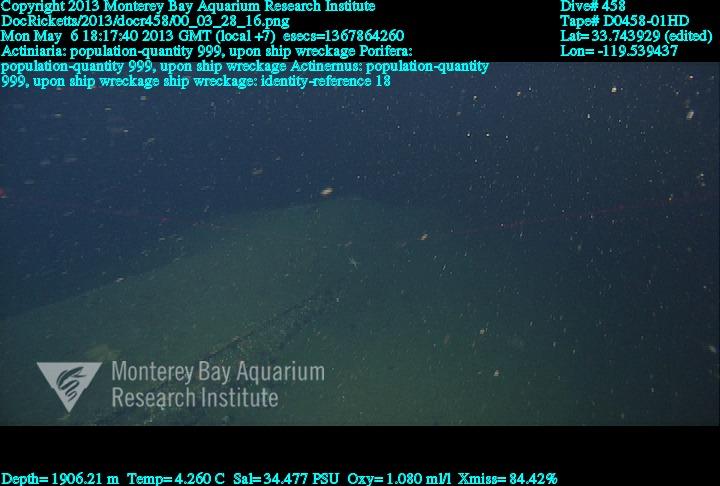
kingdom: Animalia
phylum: Porifera
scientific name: Porifera
